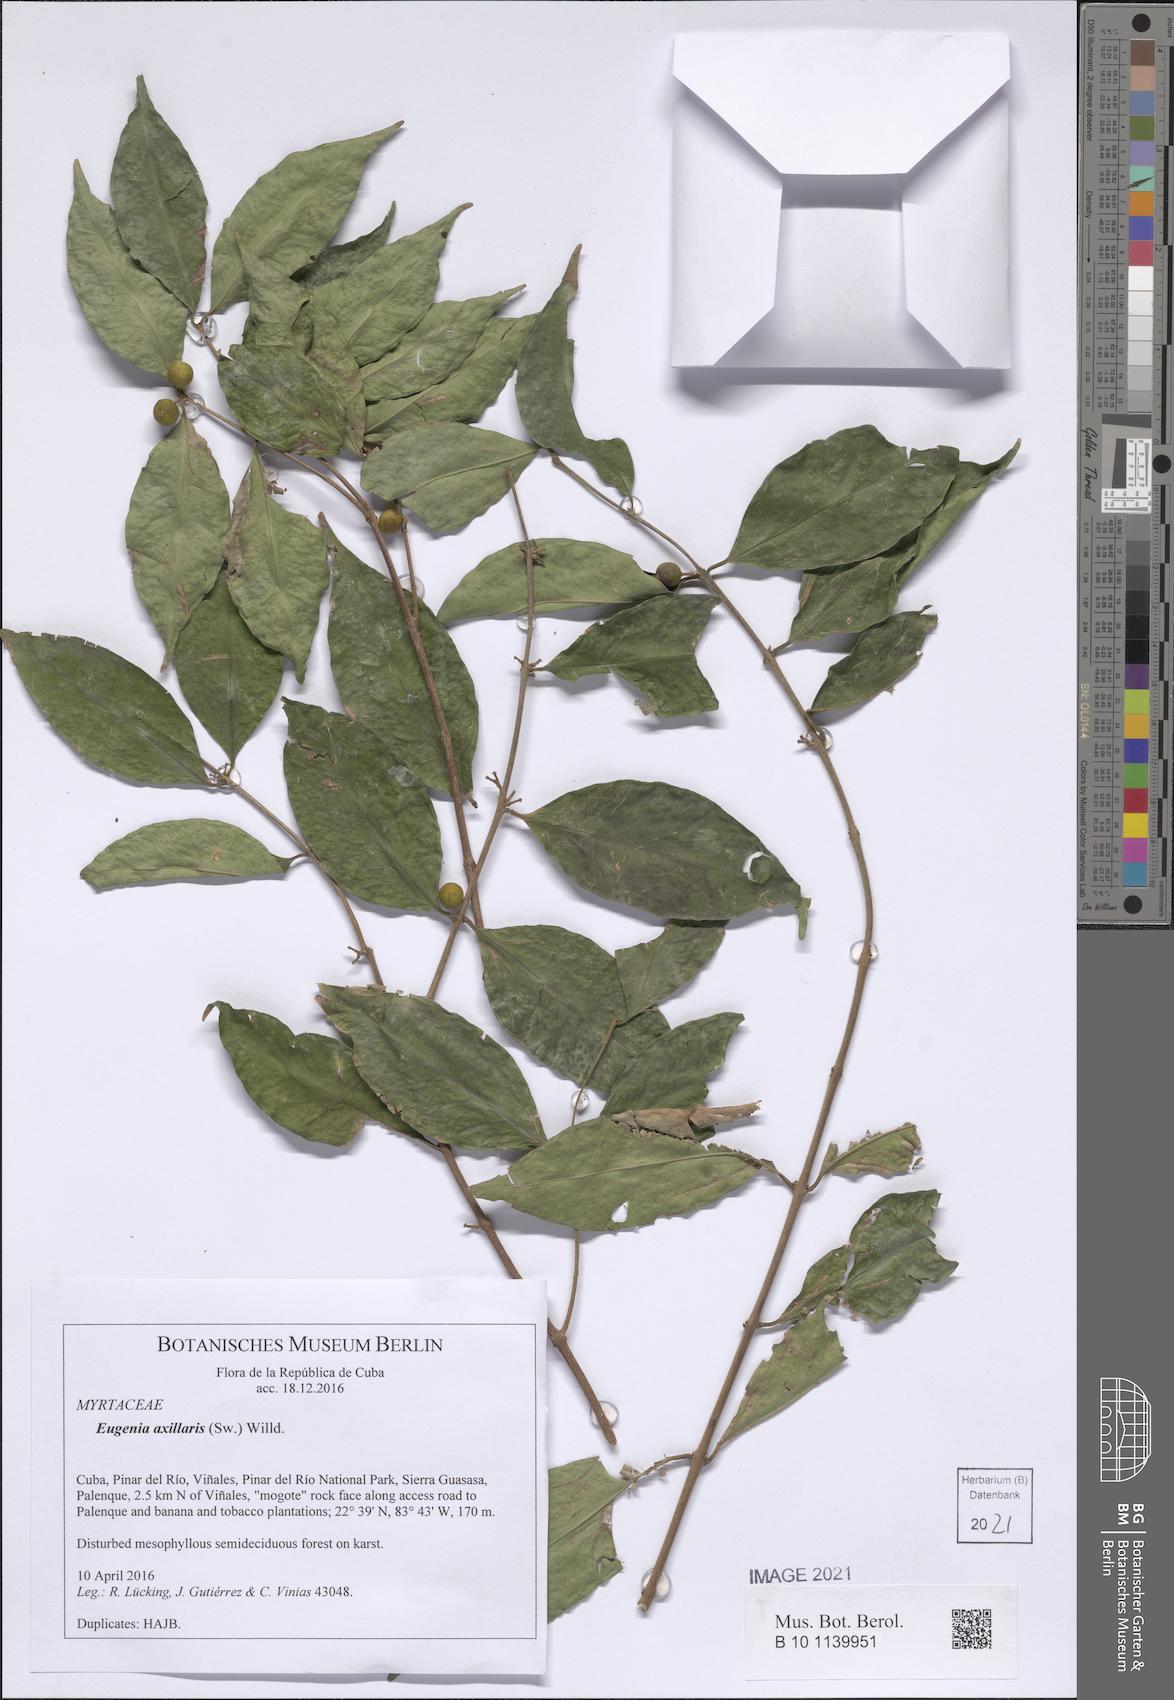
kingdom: Plantae
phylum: Tracheophyta
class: Magnoliopsida
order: Myrtales
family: Myrtaceae
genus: Eugenia
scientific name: Eugenia axillaris
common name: Choaky berry
